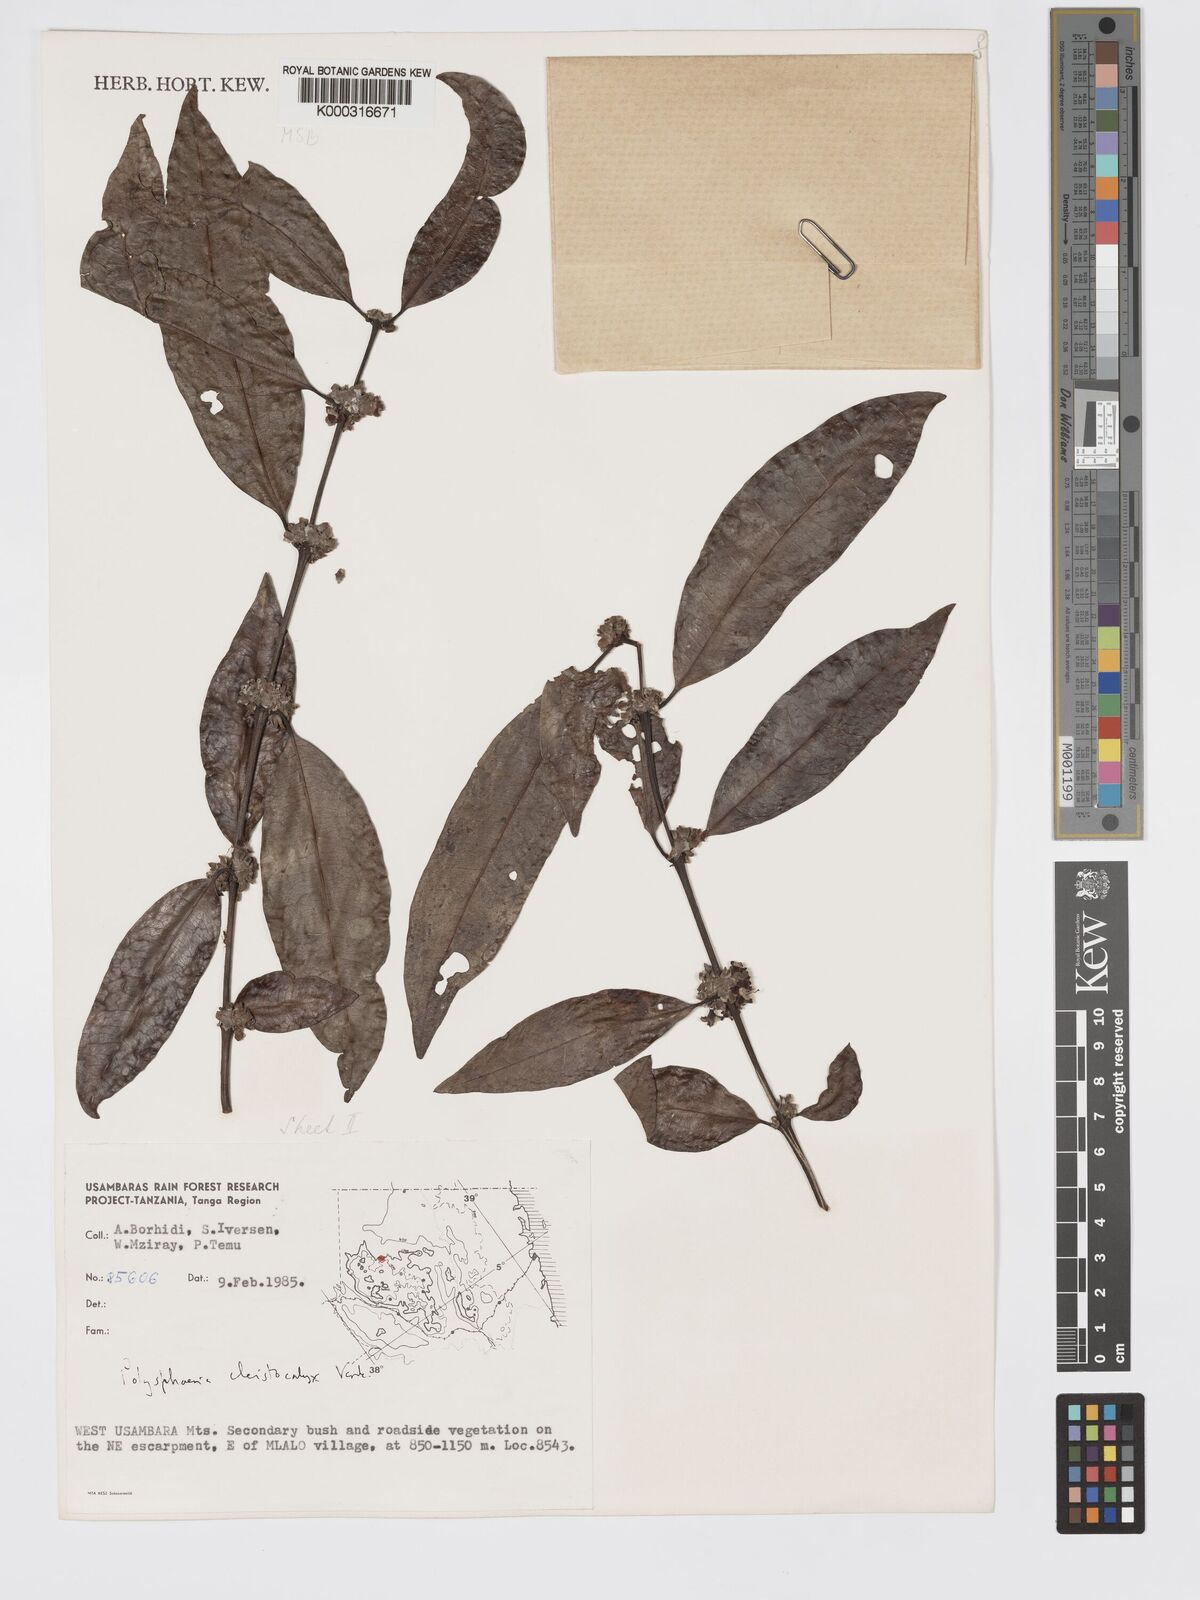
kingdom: Plantae
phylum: Tracheophyta
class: Magnoliopsida
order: Gentianales
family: Rubiaceae
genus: Polysphaeria
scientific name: Polysphaeria cleistocalyx
